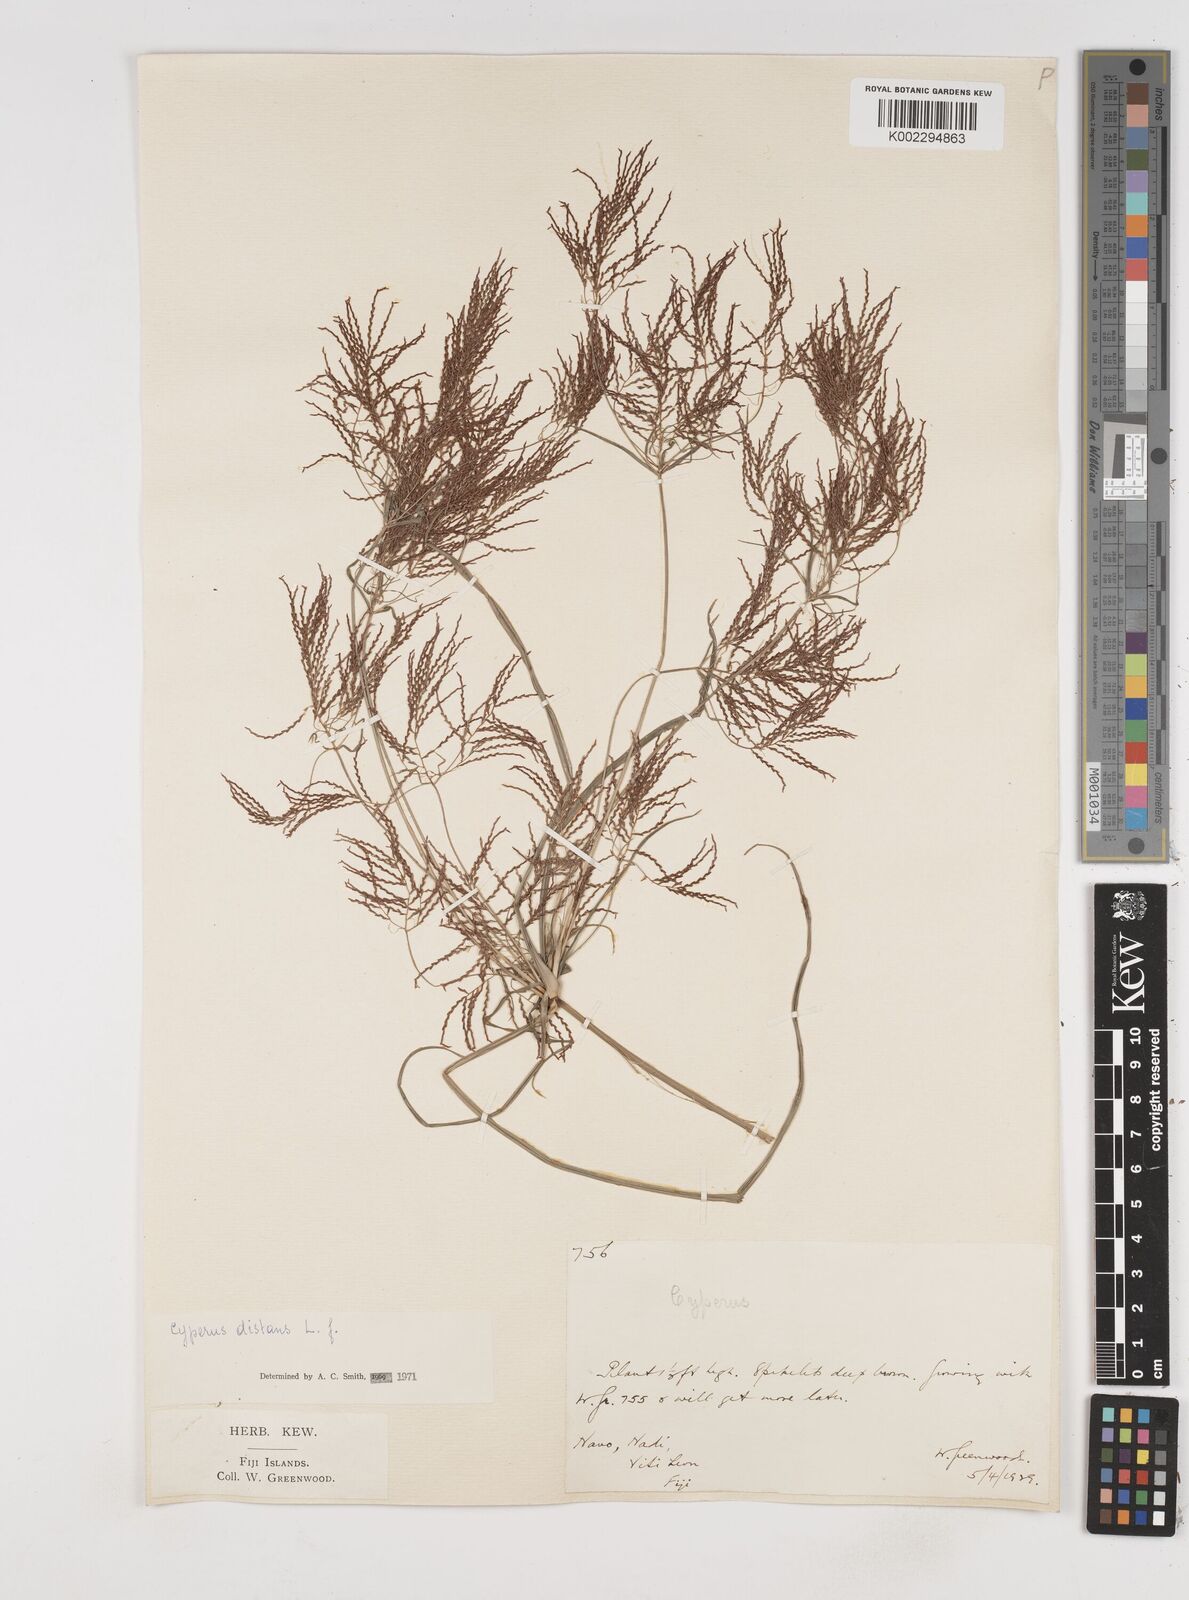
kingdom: Plantae
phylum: Tracheophyta
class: Liliopsida
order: Poales
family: Cyperaceae
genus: Cyperus
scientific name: Cyperus distans
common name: Slender cyperus
